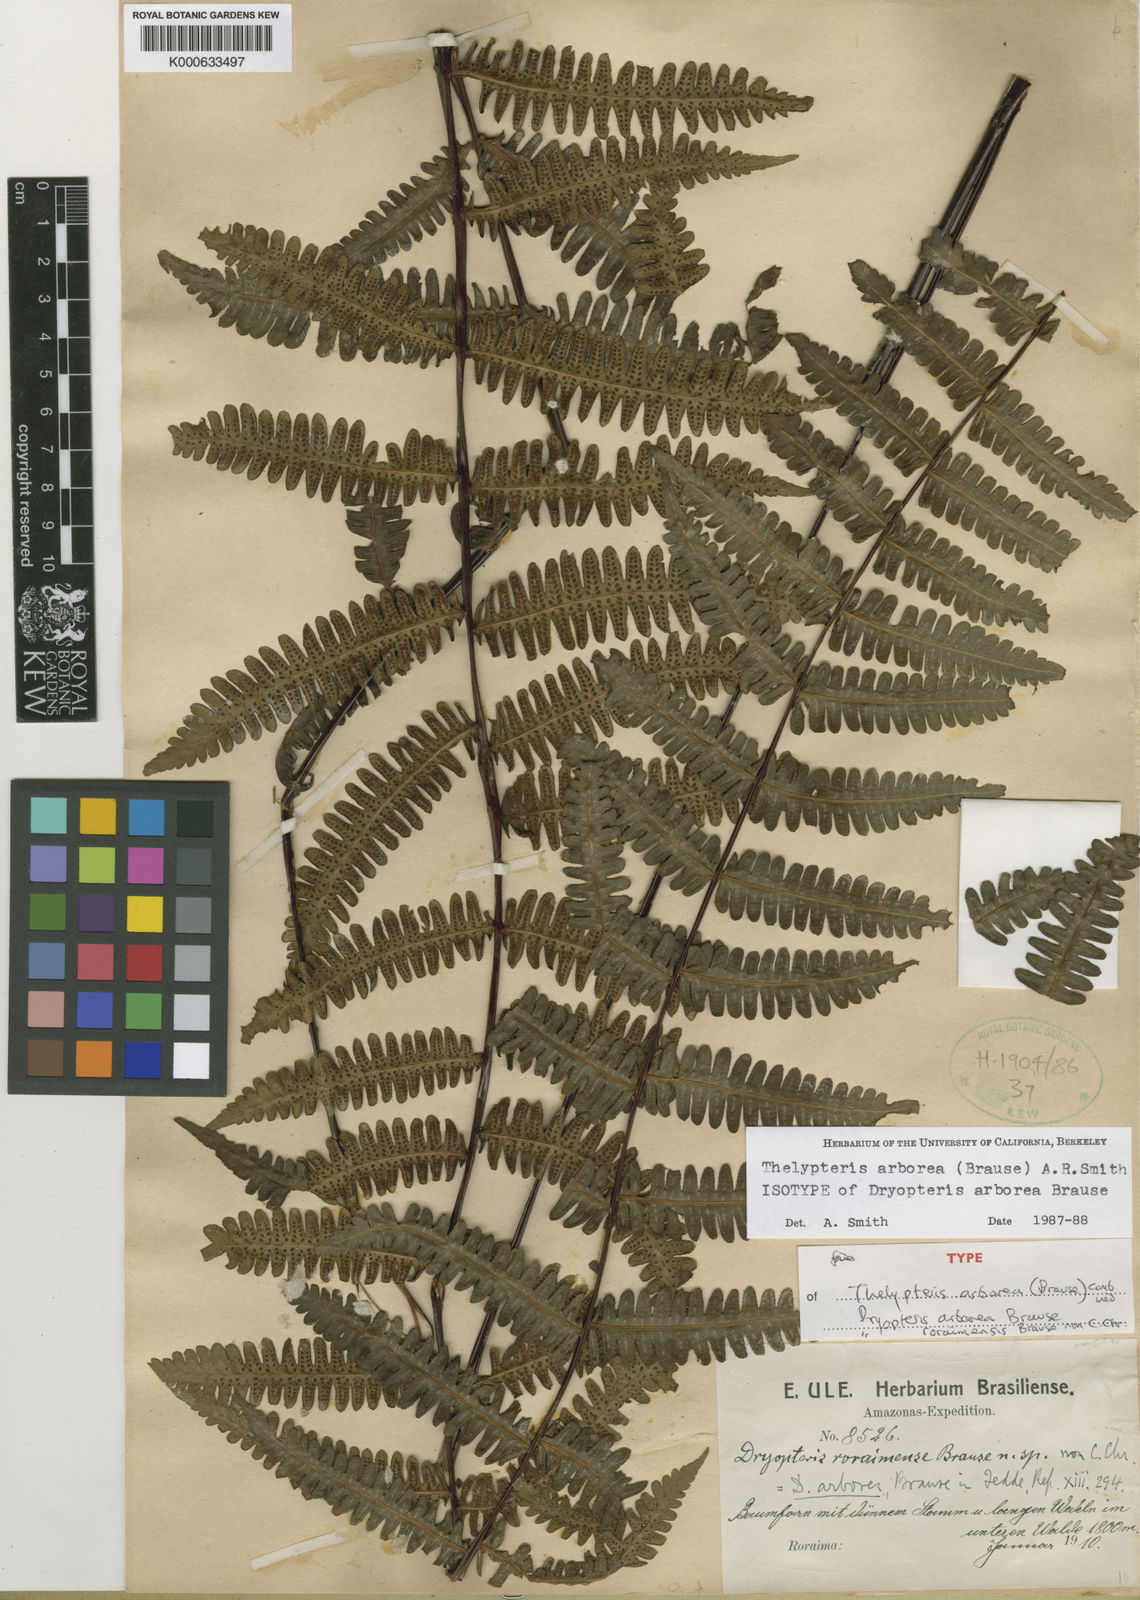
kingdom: Plantae
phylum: Tracheophyta
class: Polypodiopsida
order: Polypodiales
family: Thelypteridaceae
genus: Amauropelta
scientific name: Amauropelta
